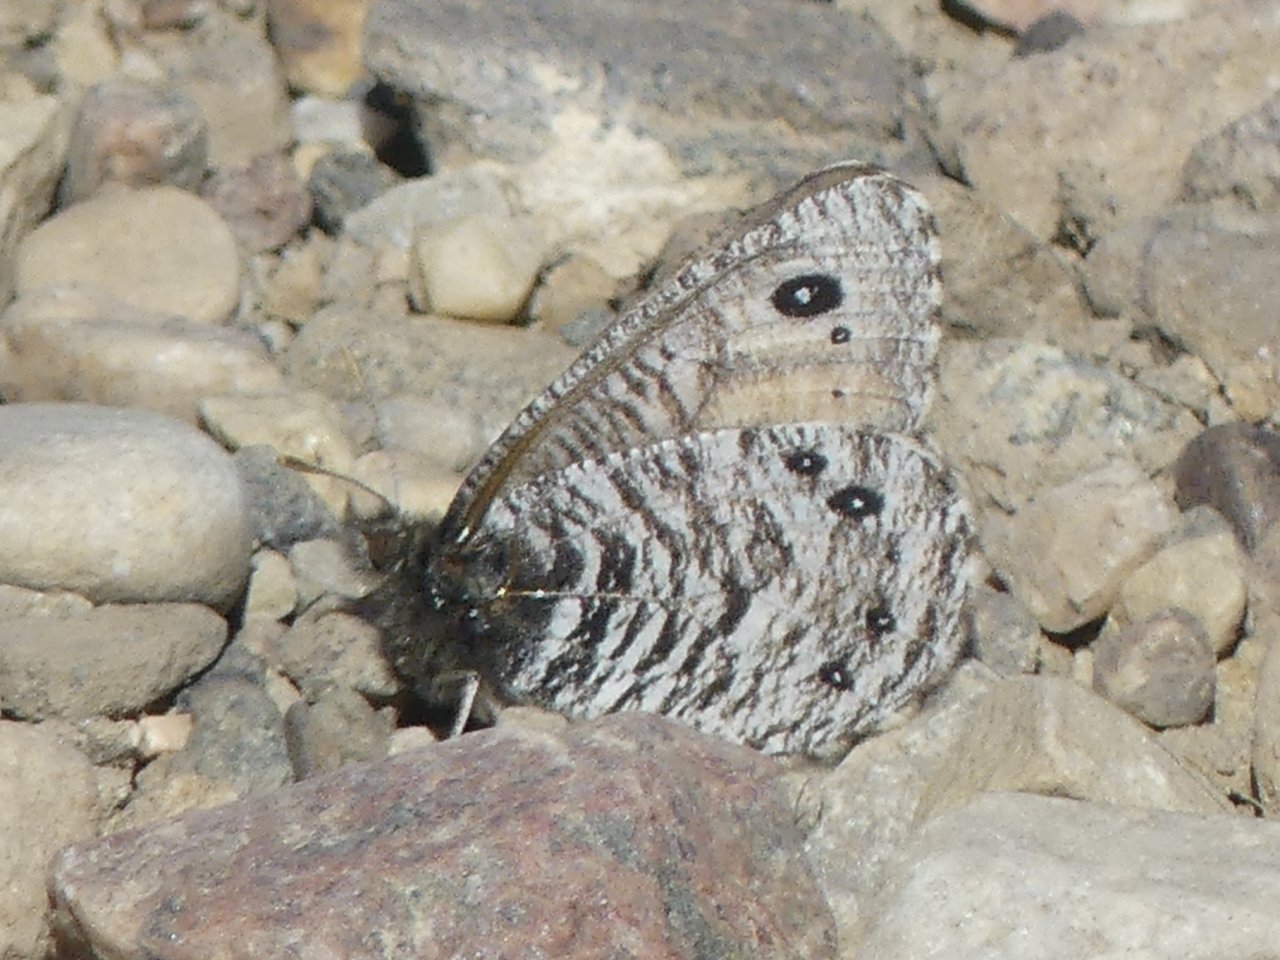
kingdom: Animalia
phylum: Arthropoda
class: Insecta
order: Lepidoptera
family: Nymphalidae
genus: Oeneis
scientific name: Oeneis uhleri
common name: Uhler's Arctic
